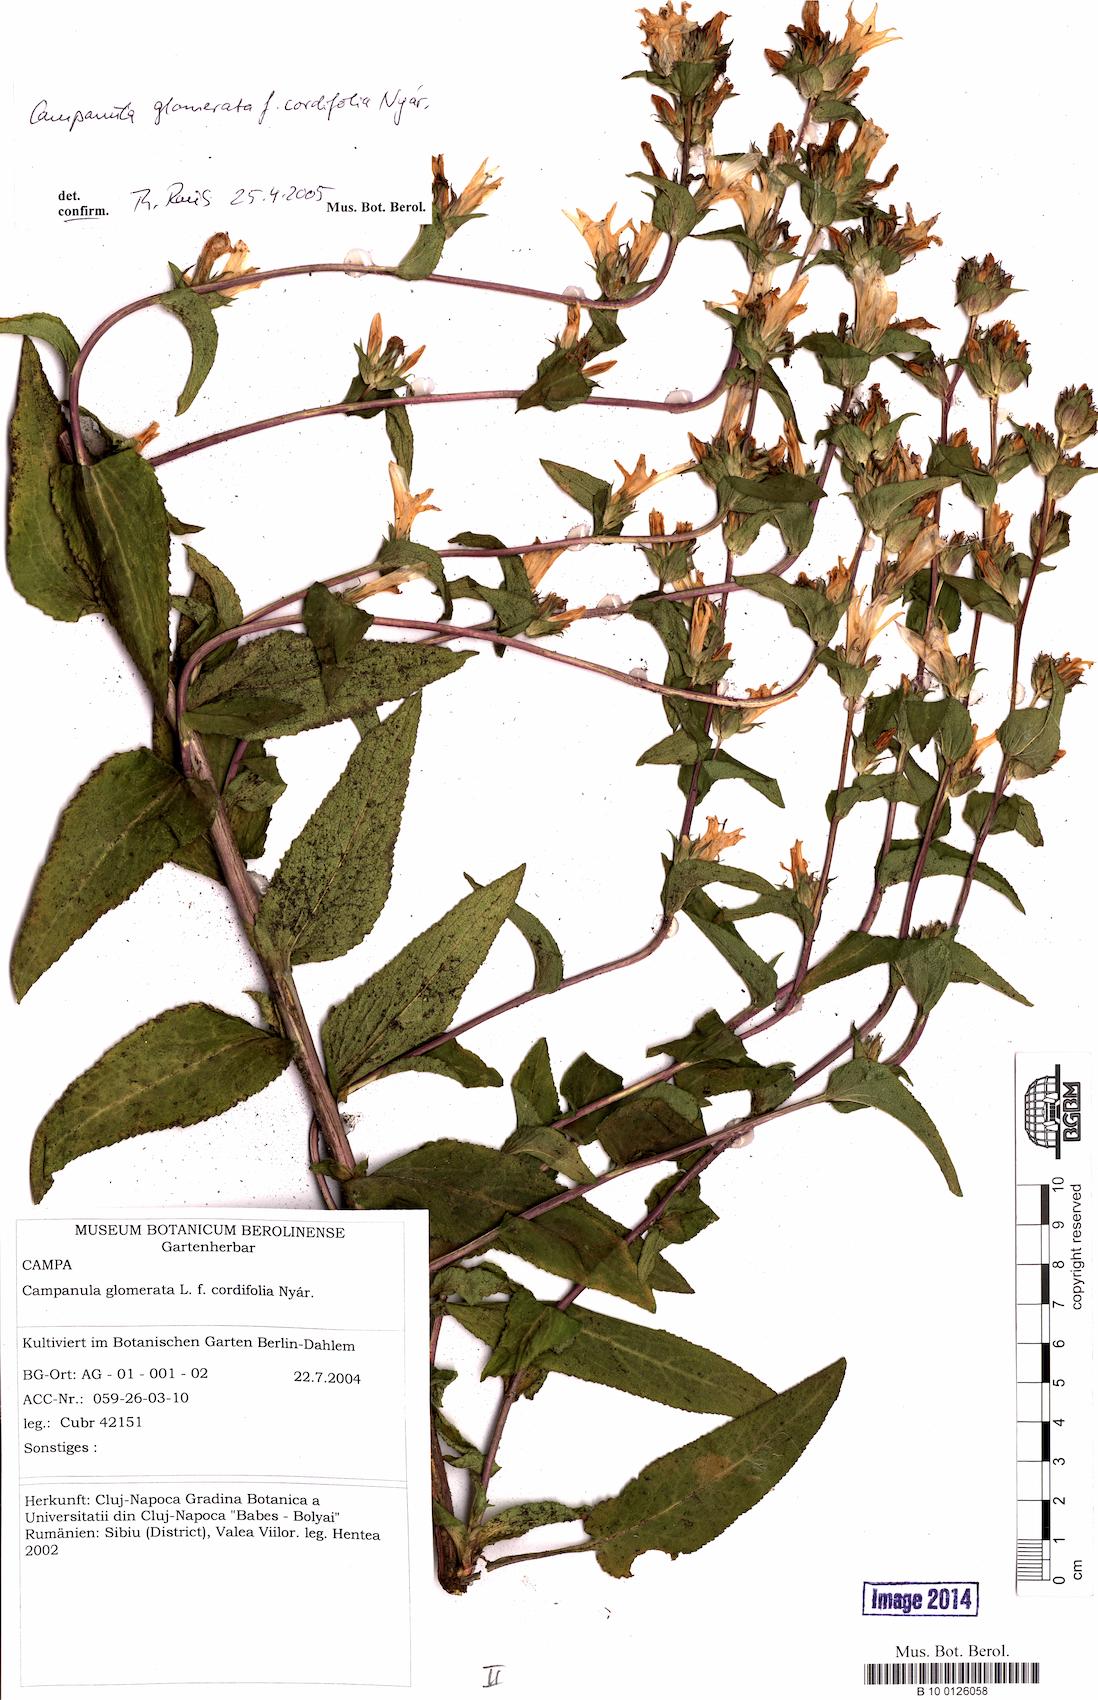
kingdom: Plantae
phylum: Tracheophyta
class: Magnoliopsida
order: Asterales
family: Campanulaceae
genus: Campanula
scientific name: Campanula glomerata
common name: Clustered bellflower
